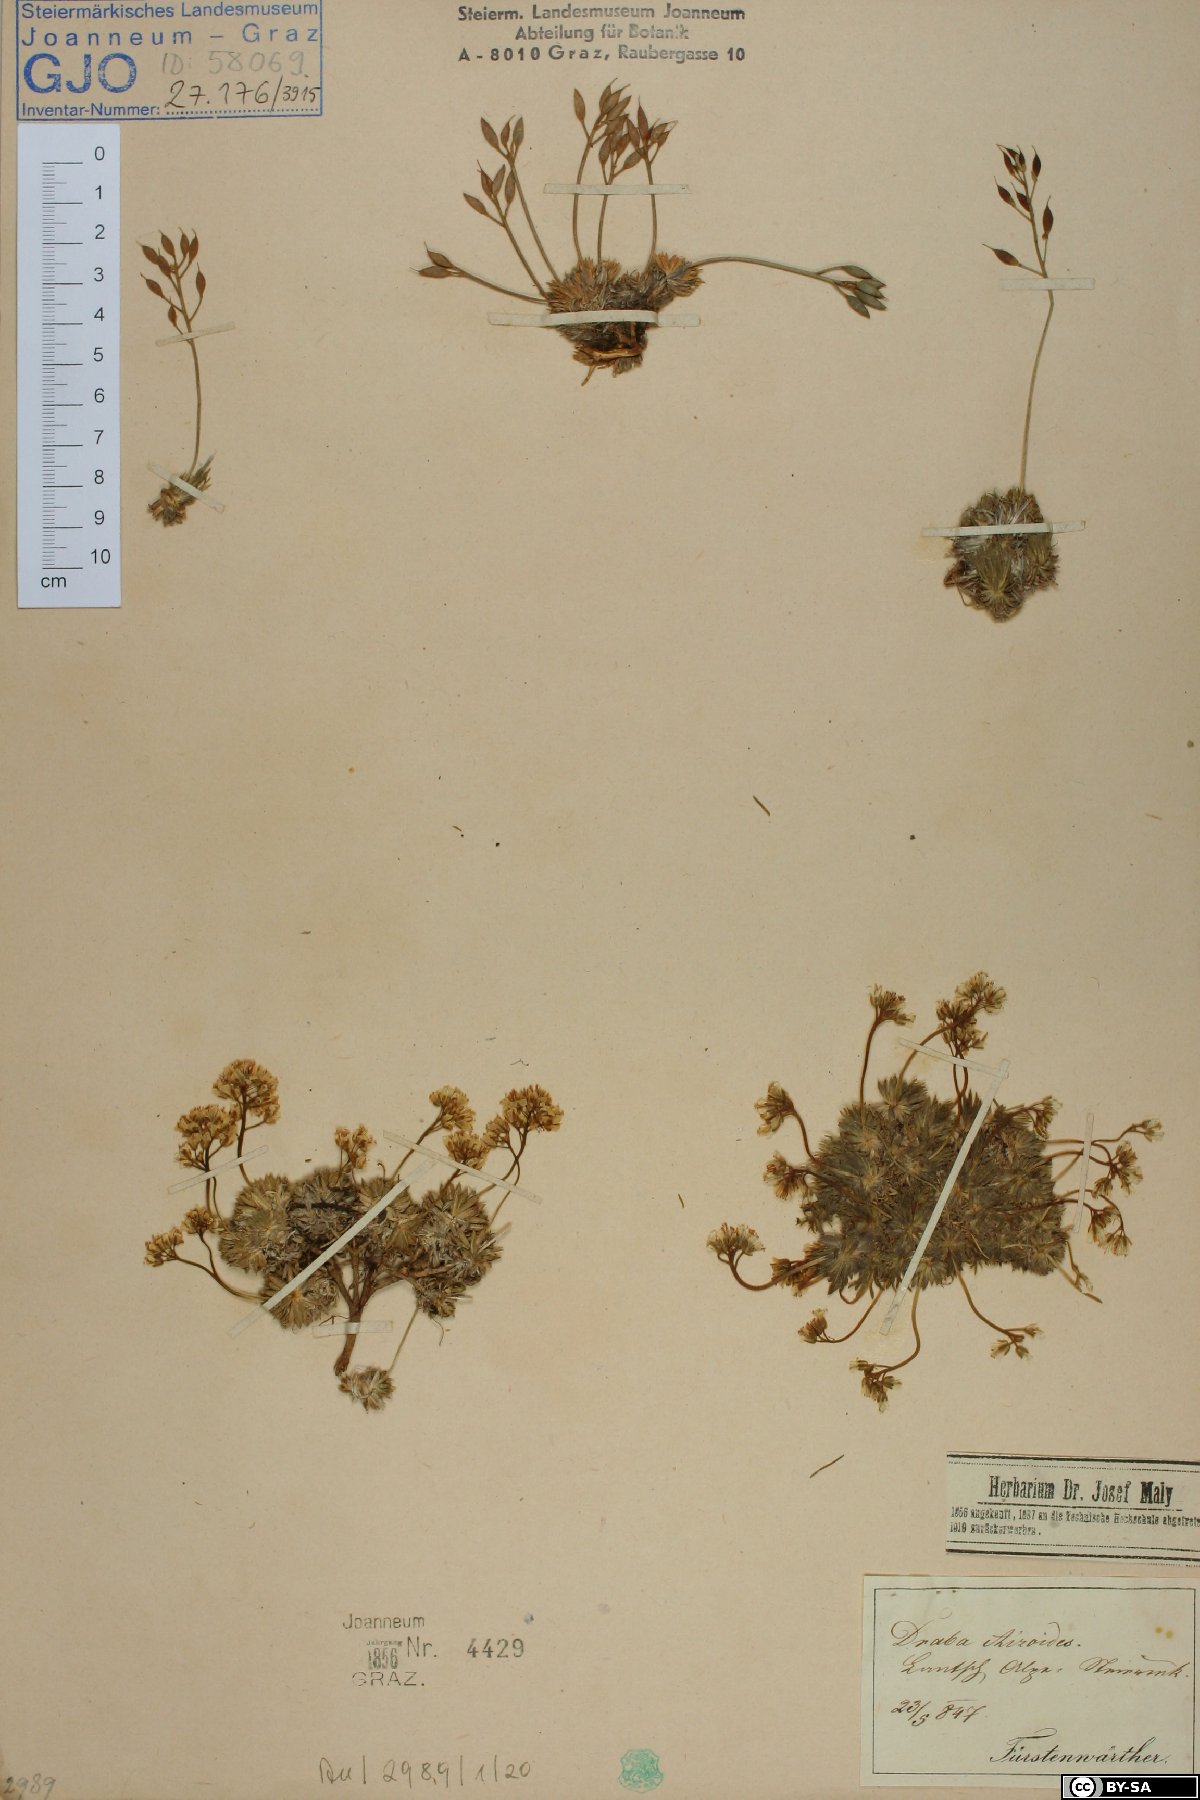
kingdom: Plantae
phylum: Tracheophyta
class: Magnoliopsida
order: Brassicales
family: Brassicaceae
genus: Draba
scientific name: Draba aizoides
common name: Yellow whitlowgrass
